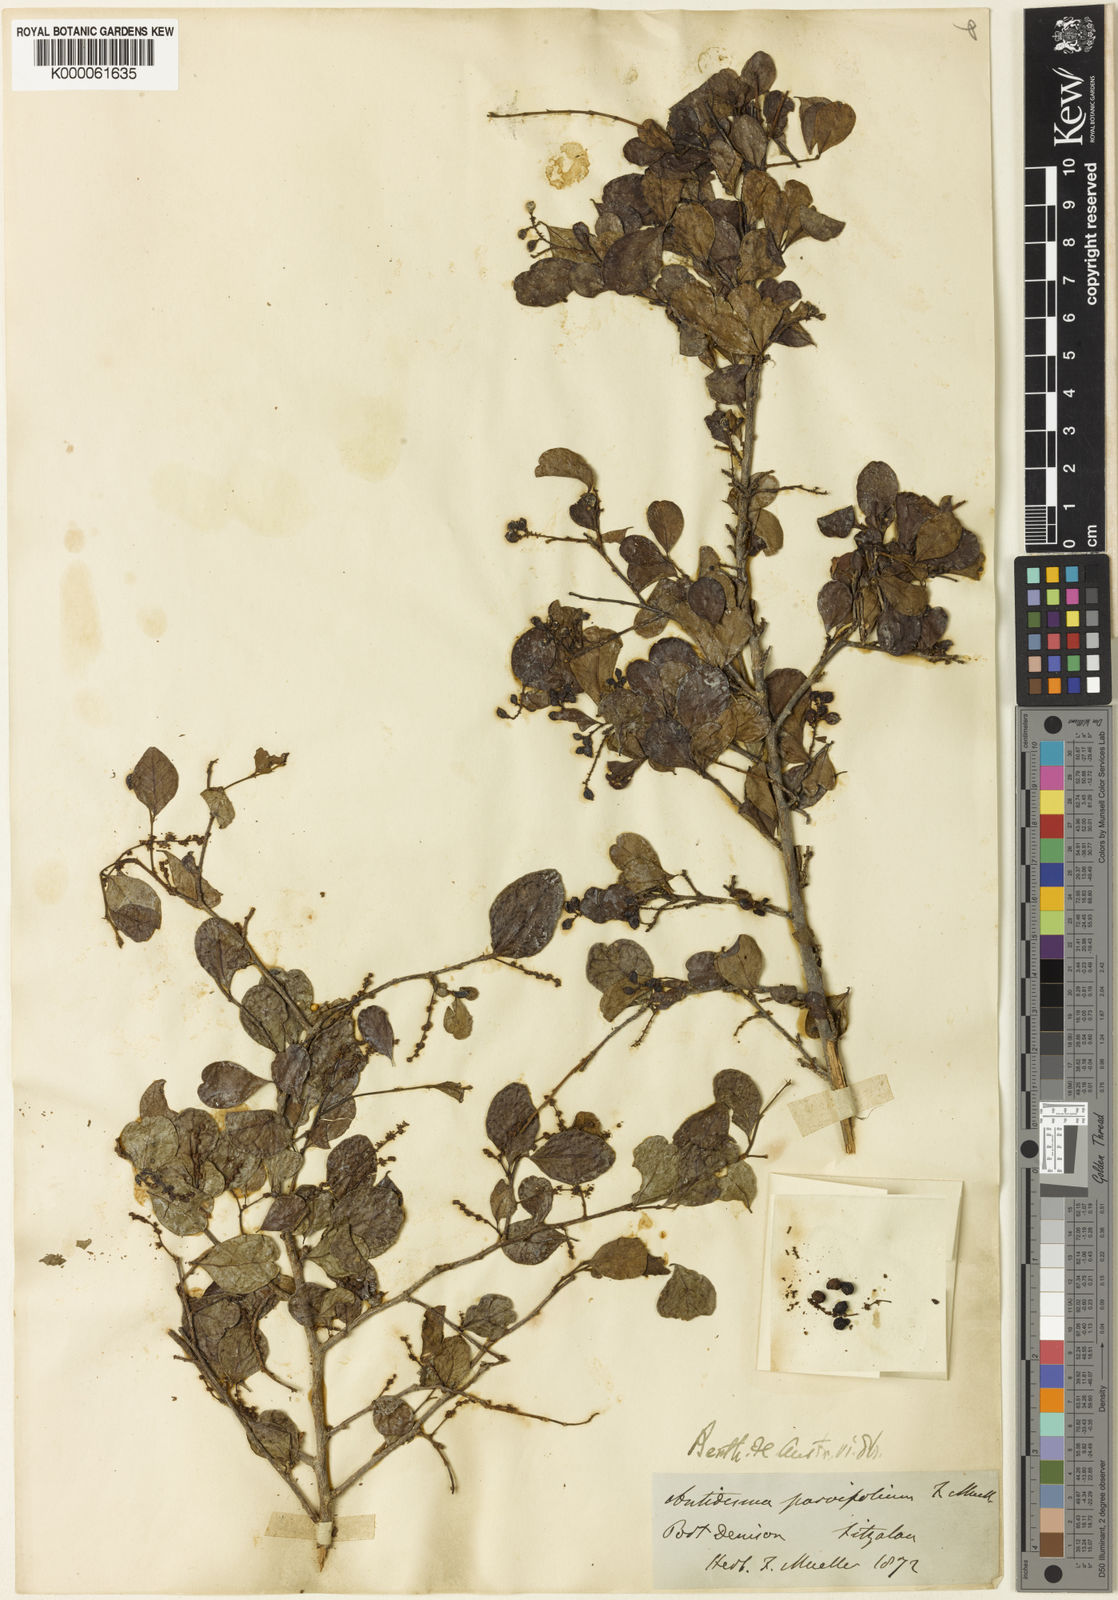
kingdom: Plantae
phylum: Tracheophyta
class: Magnoliopsida
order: Malpighiales
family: Phyllanthaceae
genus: Antidesma
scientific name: Antidesma parvifolium
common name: Blackcurrant
